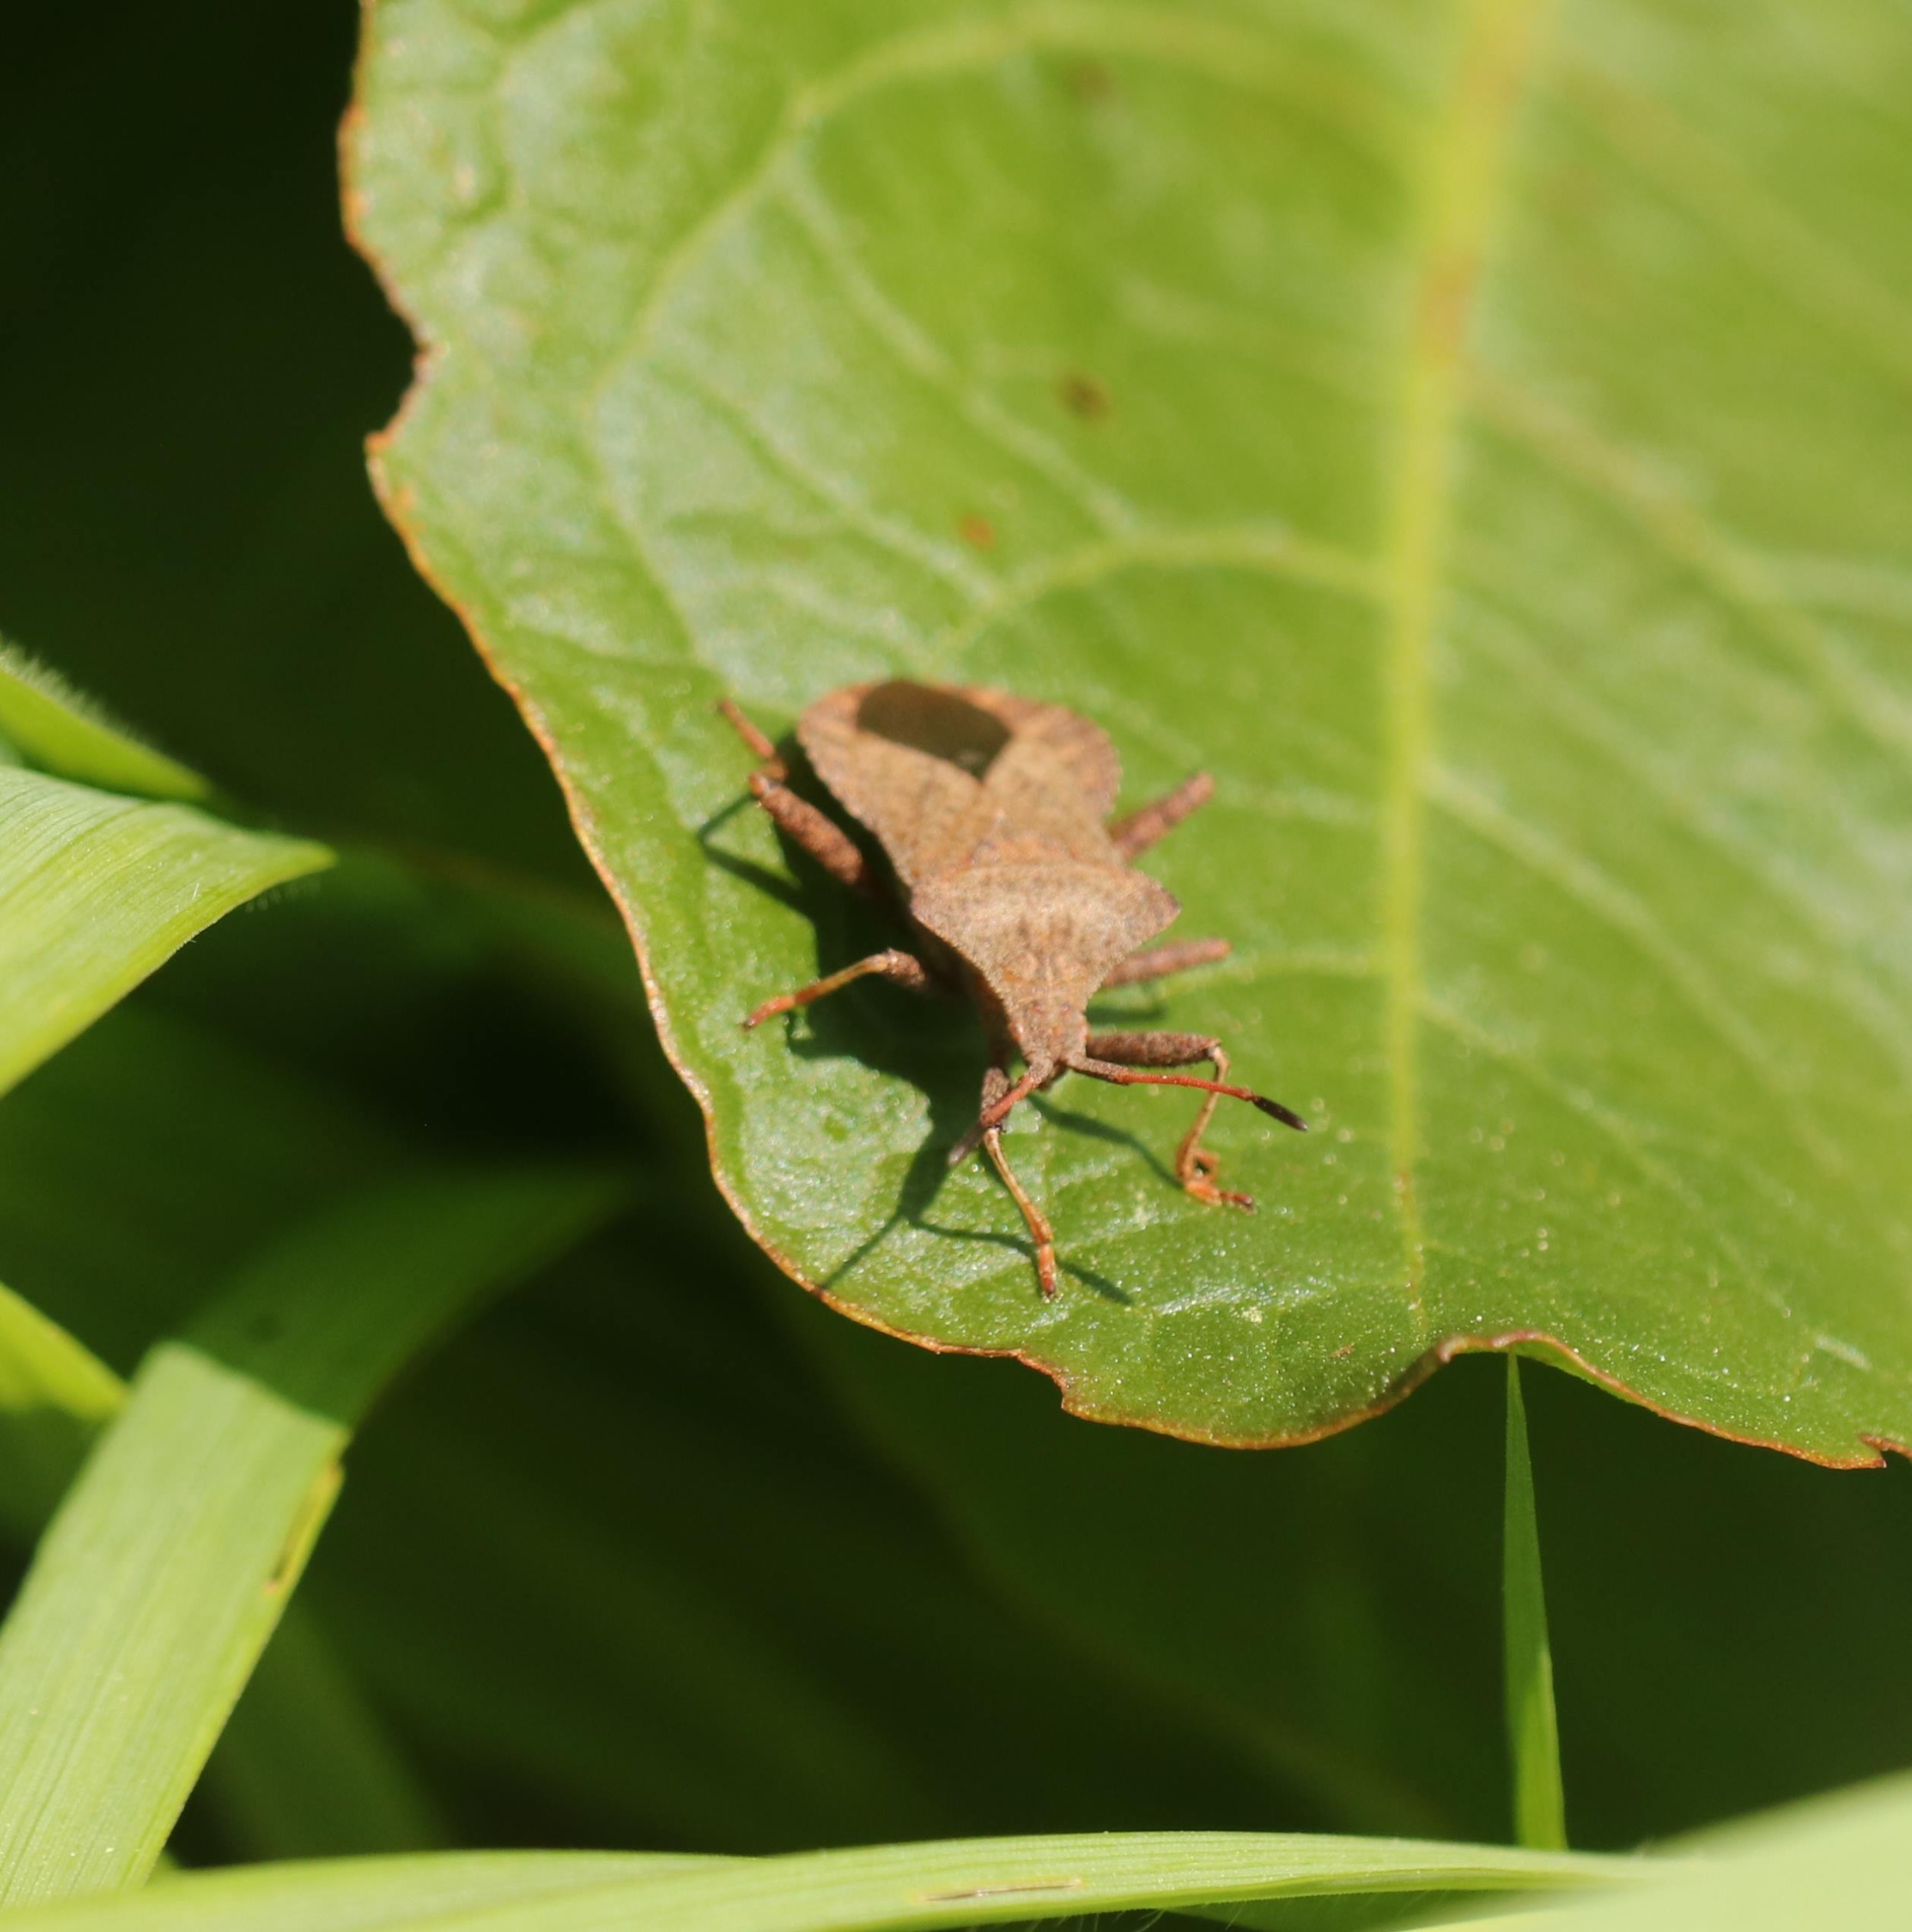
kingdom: Animalia
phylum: Arthropoda
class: Insecta
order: Hemiptera
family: Coreidae
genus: Coreus
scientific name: Coreus marginatus
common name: Skræppetæge
